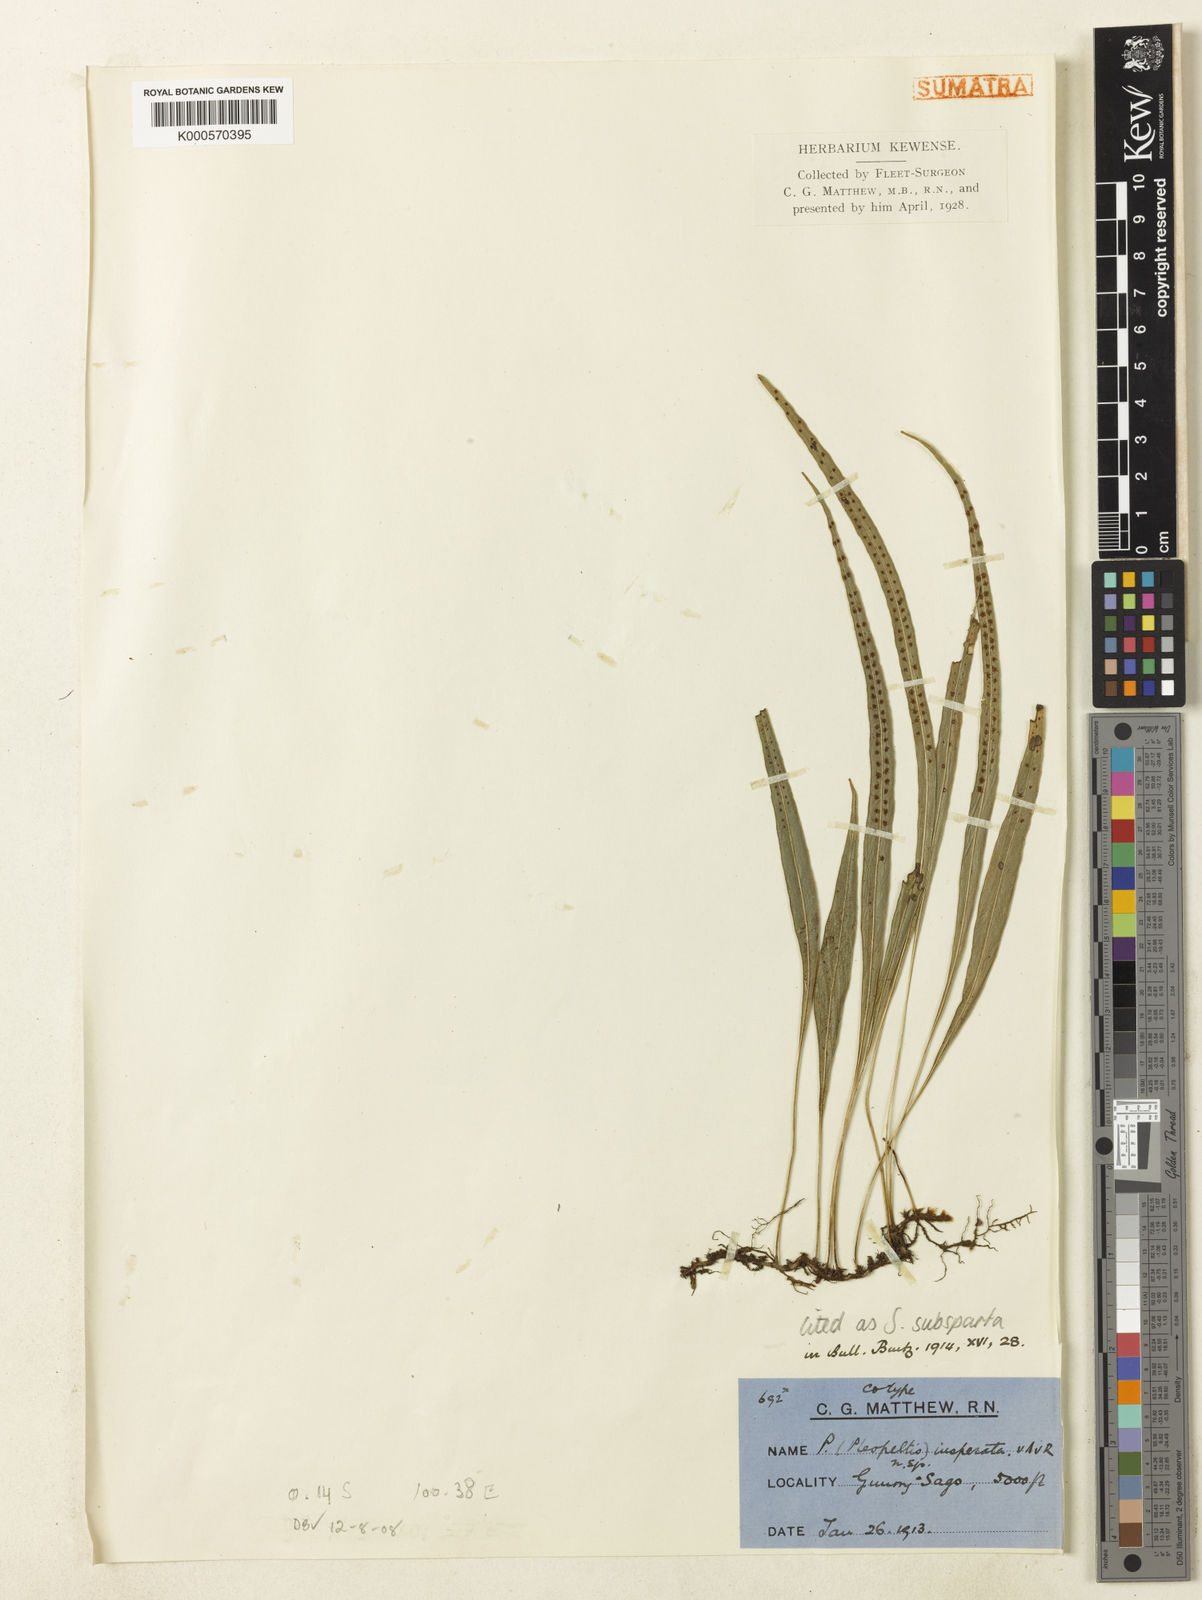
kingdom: Plantae
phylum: Tracheophyta
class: Polypodiopsida
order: Polypodiales
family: Polypodiaceae
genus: Selliguea
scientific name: Selliguea subsparsa
